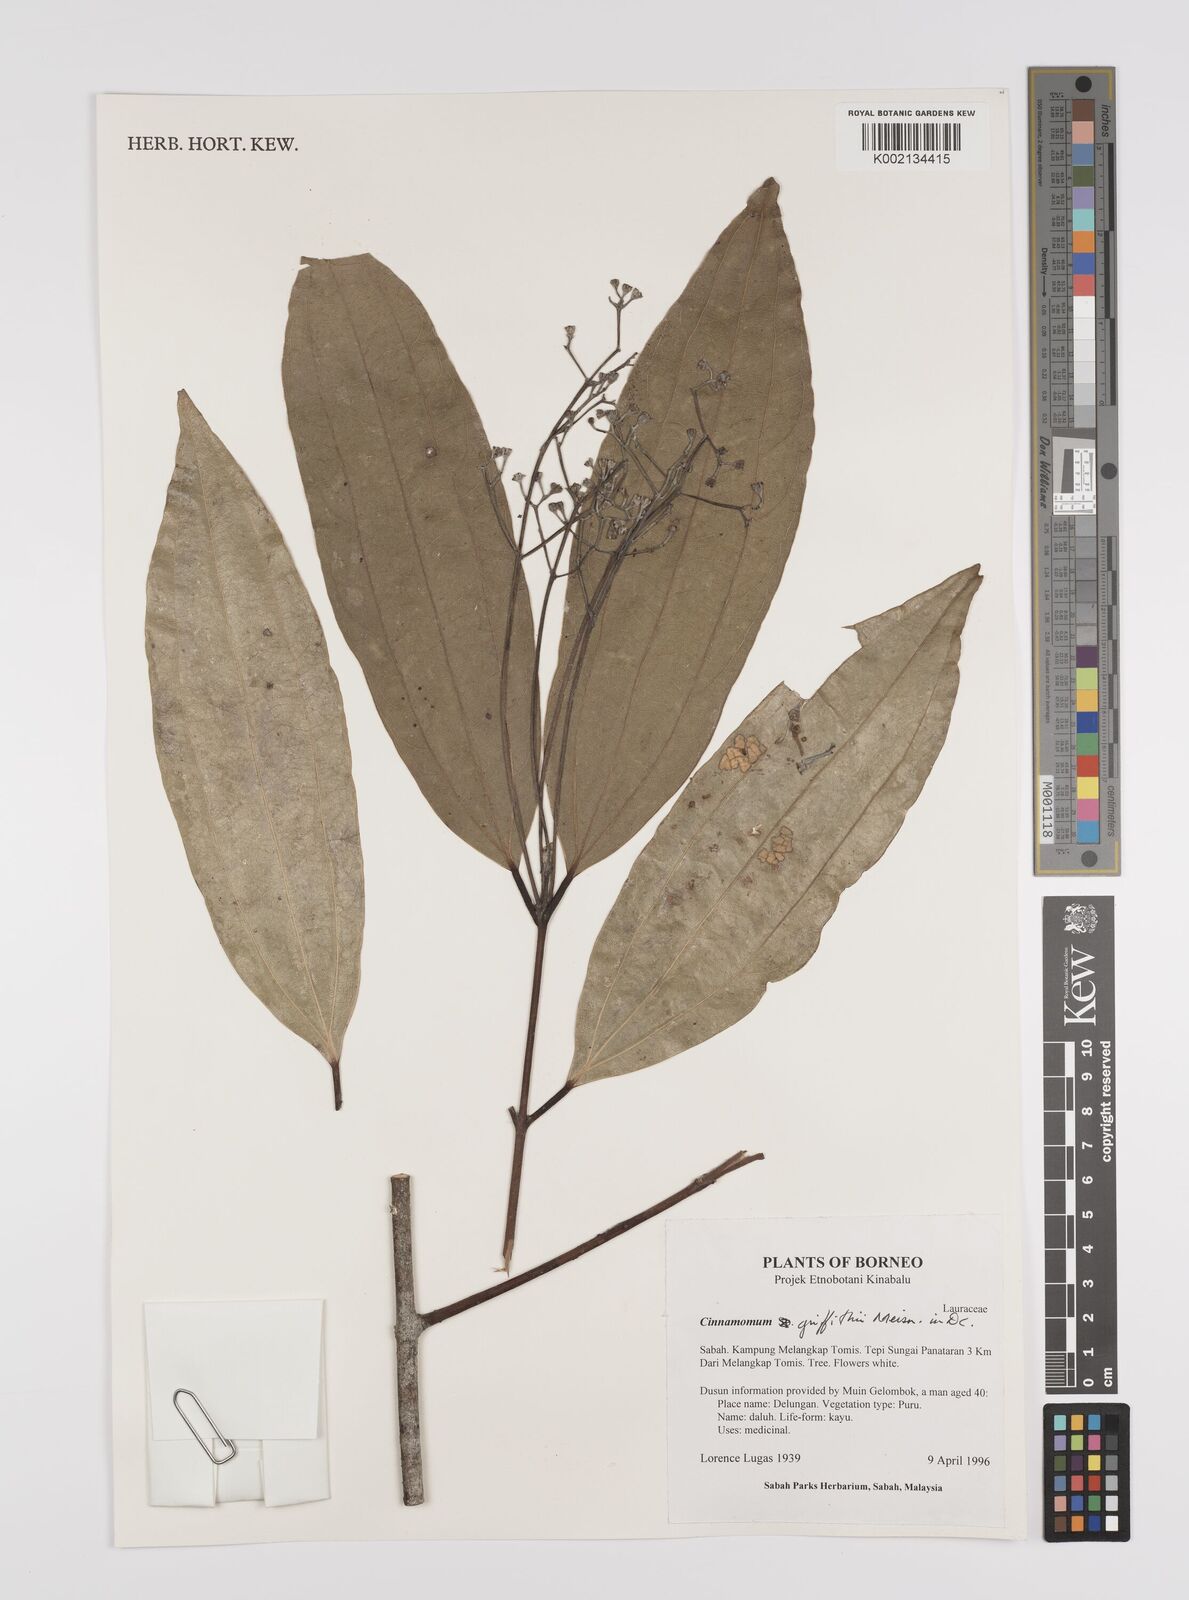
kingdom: Plantae
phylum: Tracheophyta
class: Magnoliopsida
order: Laurales
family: Lauraceae
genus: Cinnamomum
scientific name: Cinnamomum iners
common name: Wild cinnamon
